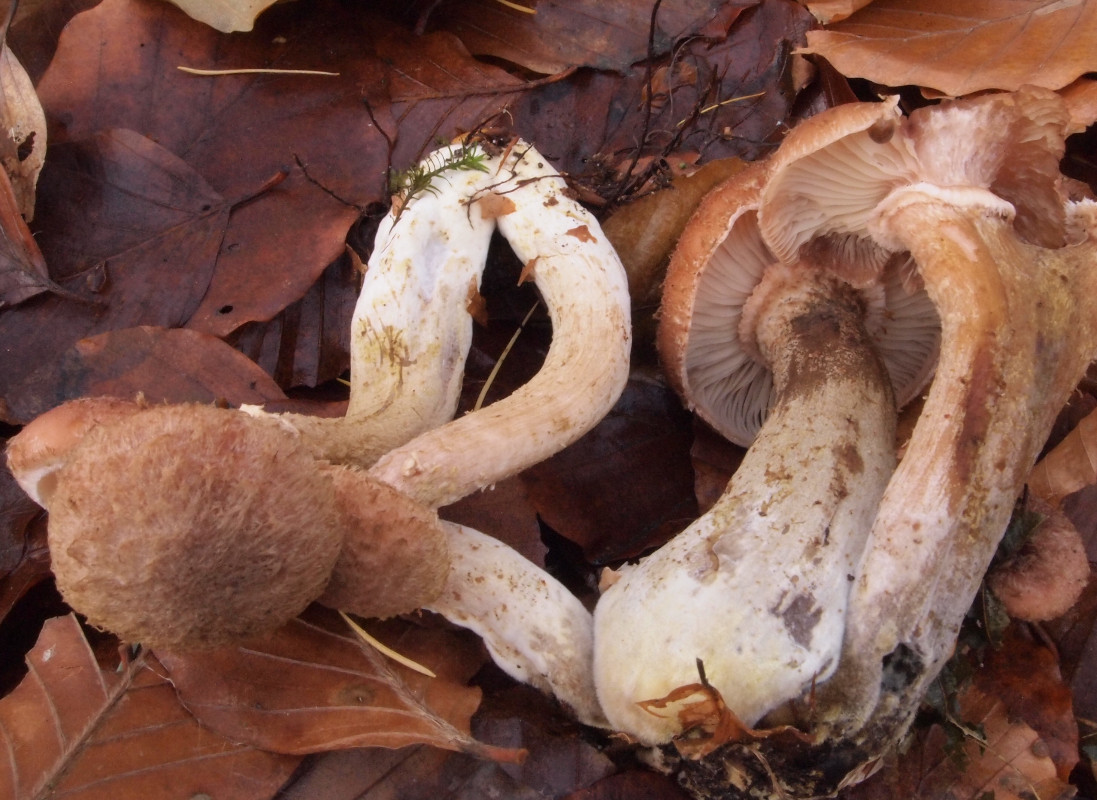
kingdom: Fungi
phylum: Basidiomycota
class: Agaricomycetes
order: Agaricales
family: Physalacriaceae
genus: Armillaria
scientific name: Armillaria lutea
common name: køllestokket honningsvamp
